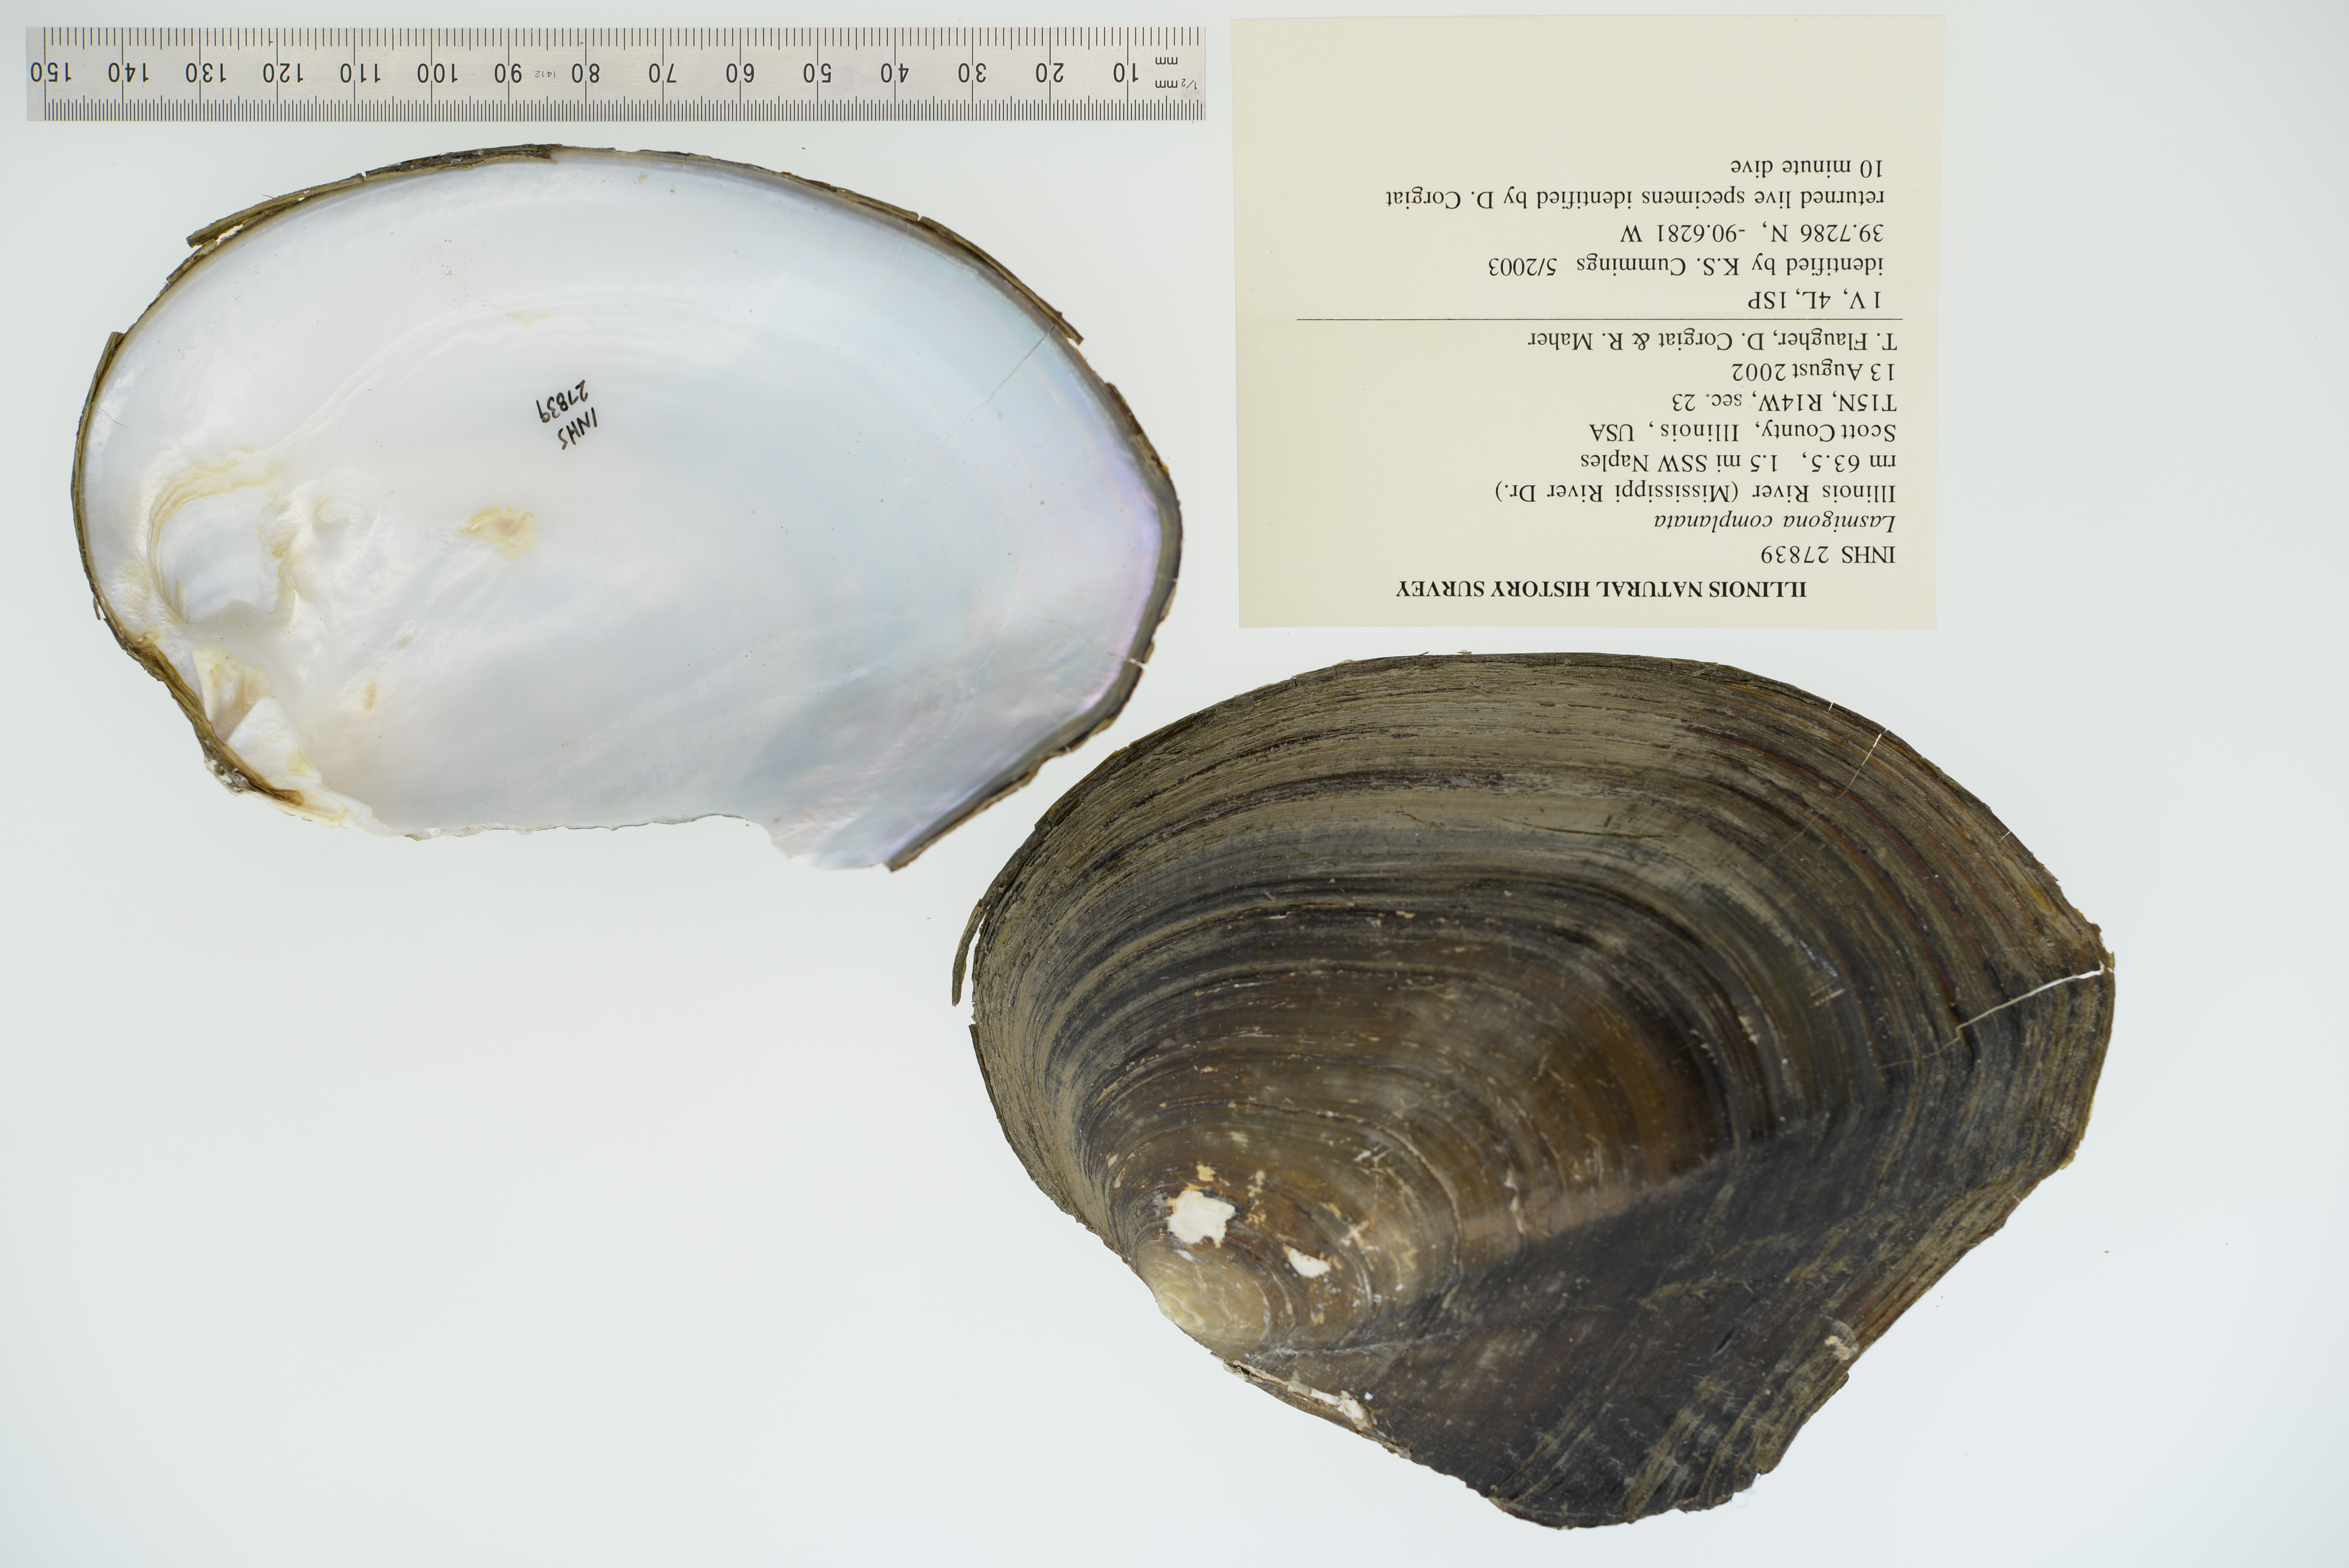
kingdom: Animalia
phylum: Mollusca
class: Bivalvia
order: Unionida
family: Unionidae
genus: Lasmigona
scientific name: Lasmigona complanata
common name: White heelsplitter
